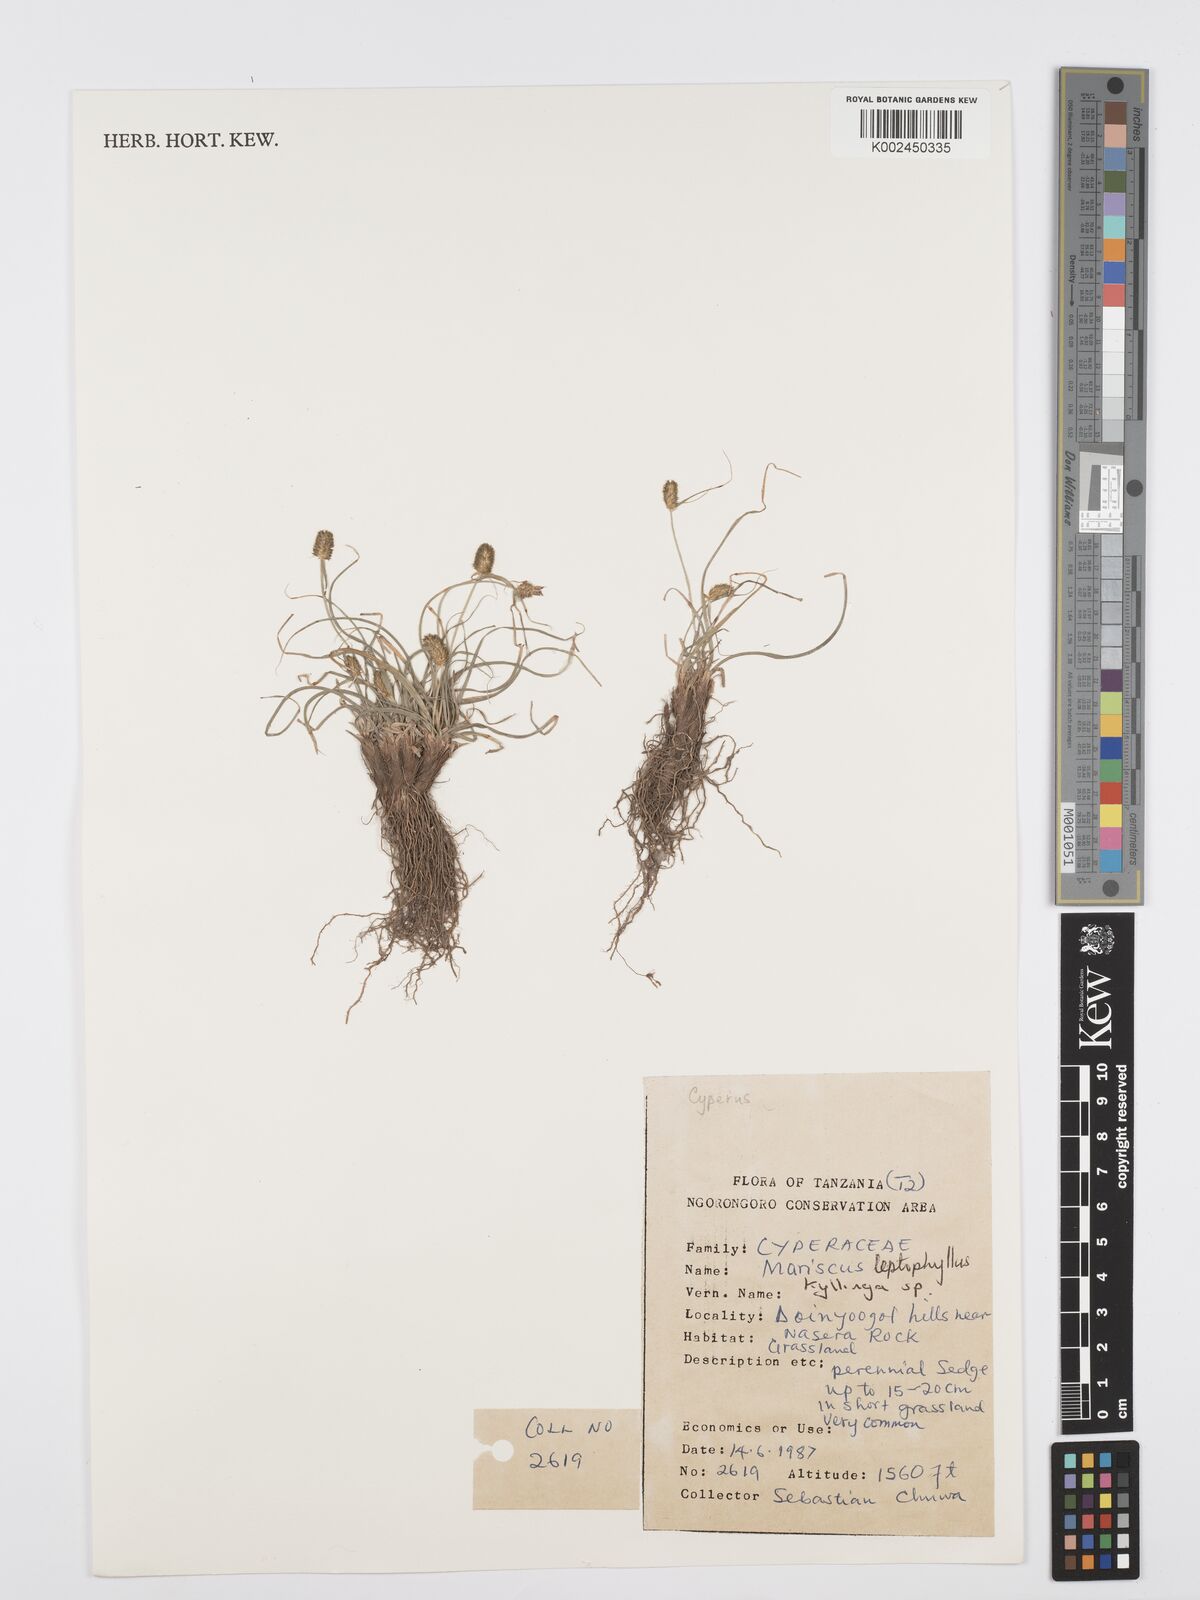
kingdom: Plantae
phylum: Tracheophyta
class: Liliopsida
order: Poales
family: Cyperaceae
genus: Cyperus
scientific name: Cyperus
